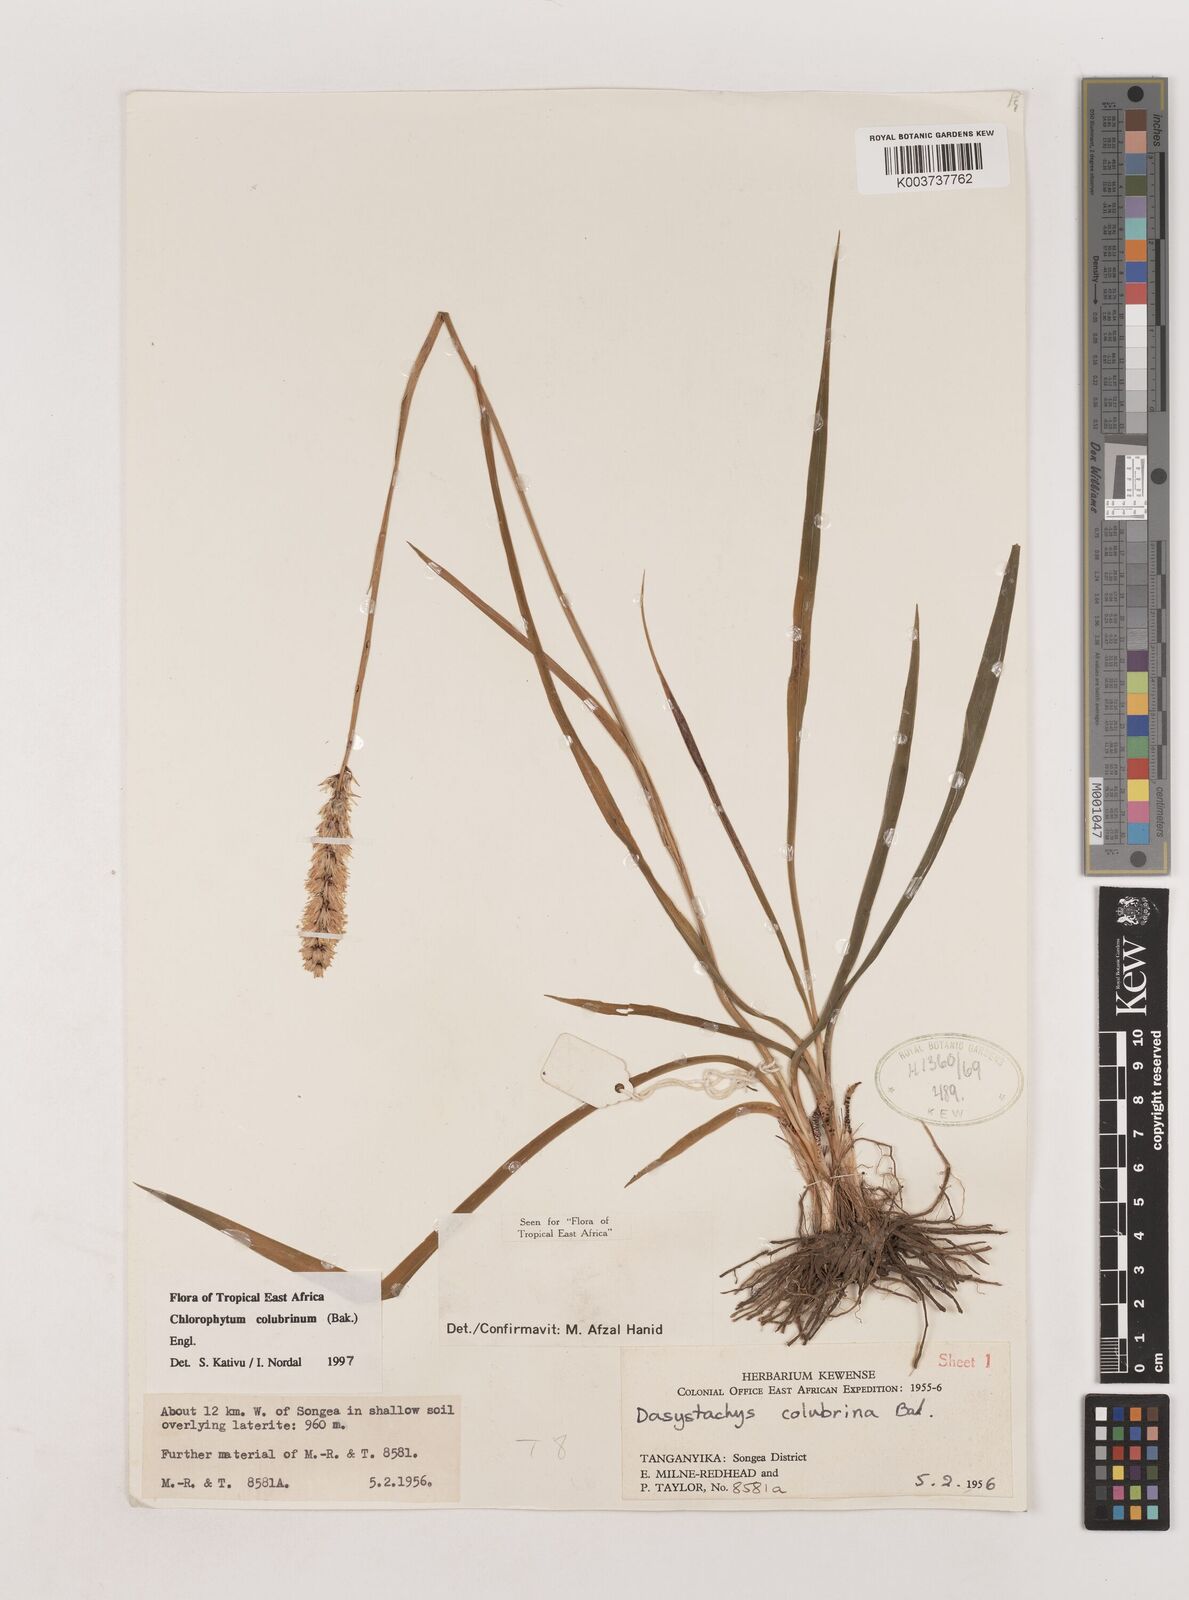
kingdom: Plantae
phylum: Tracheophyta
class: Liliopsida
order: Asparagales
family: Asparagaceae
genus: Chlorophytum
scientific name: Chlorophytum colubrinum
